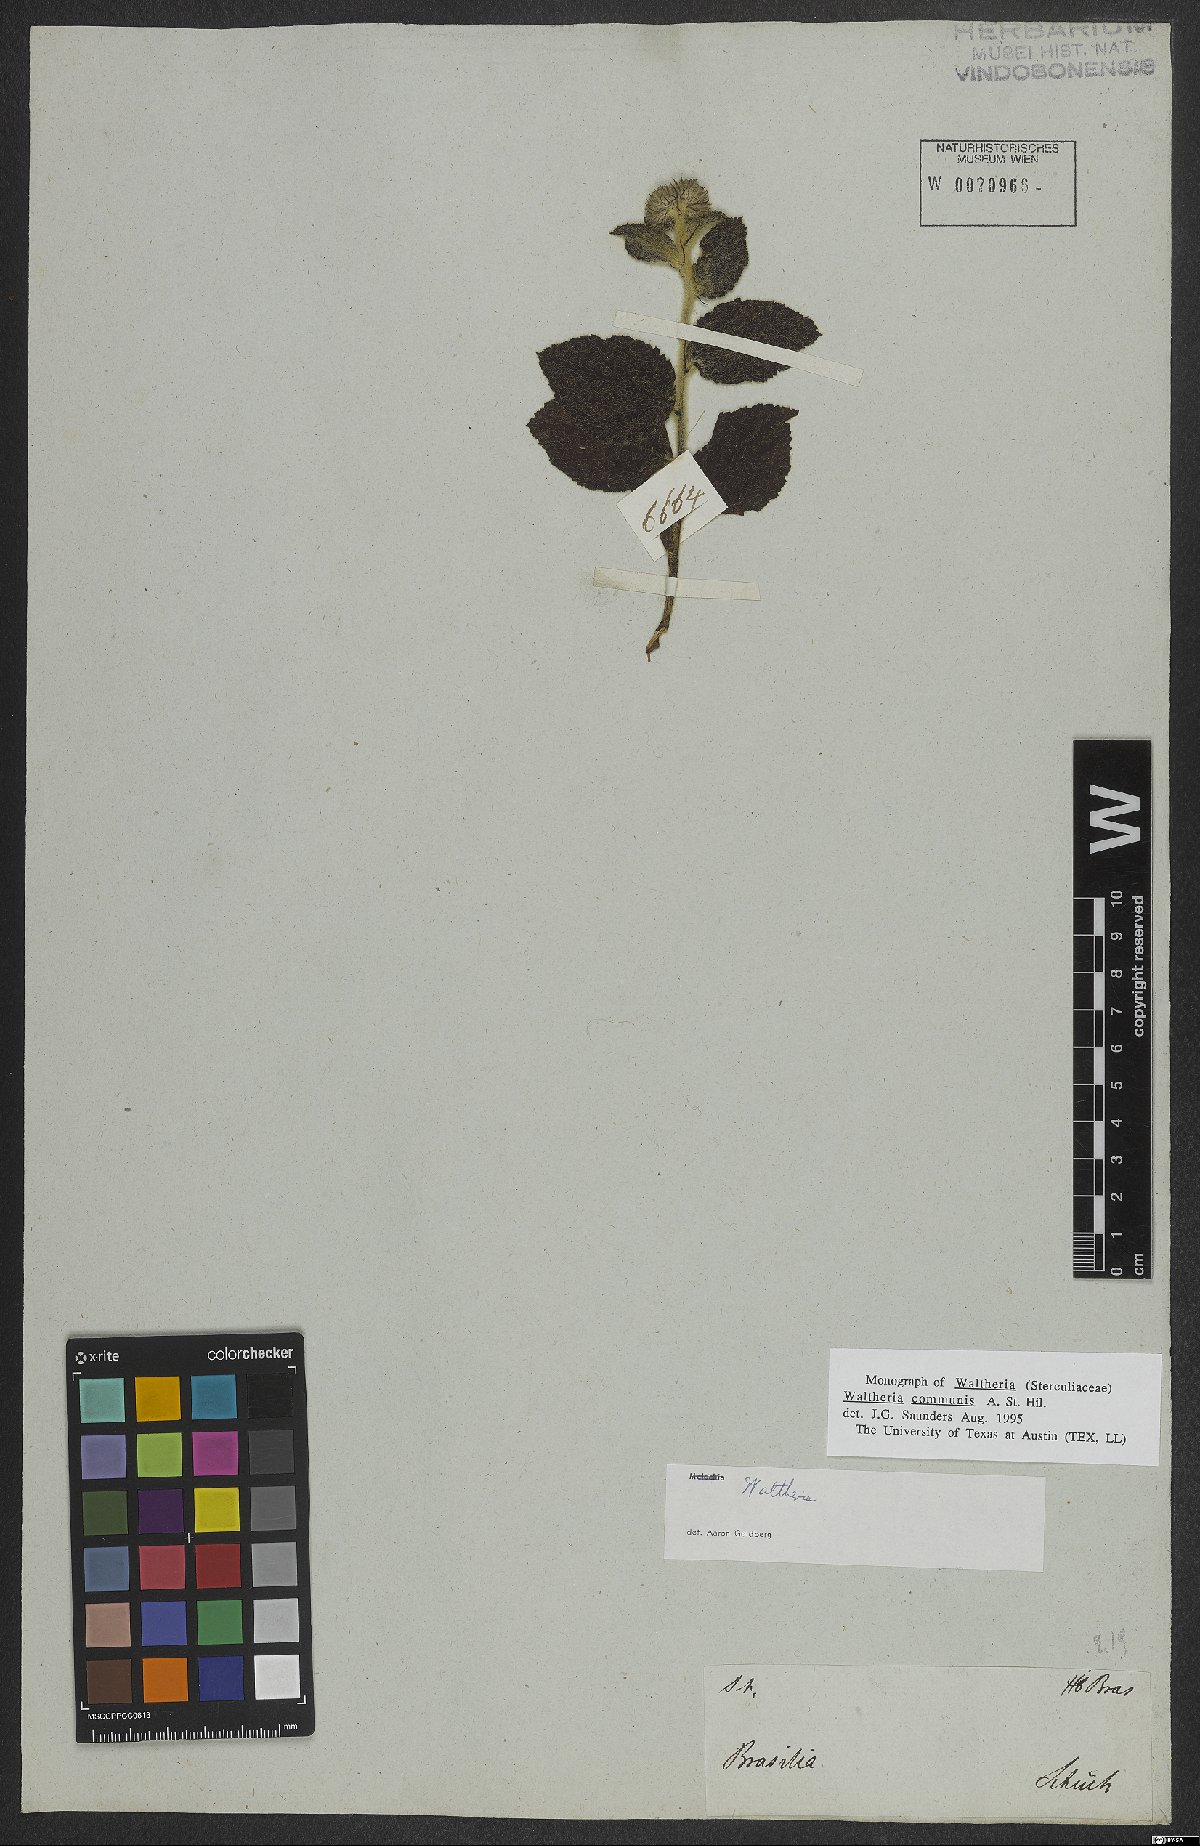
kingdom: Plantae
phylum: Tracheophyta
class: Magnoliopsida
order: Malvales
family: Malvaceae
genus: Waltheria
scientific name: Waltheria communis
